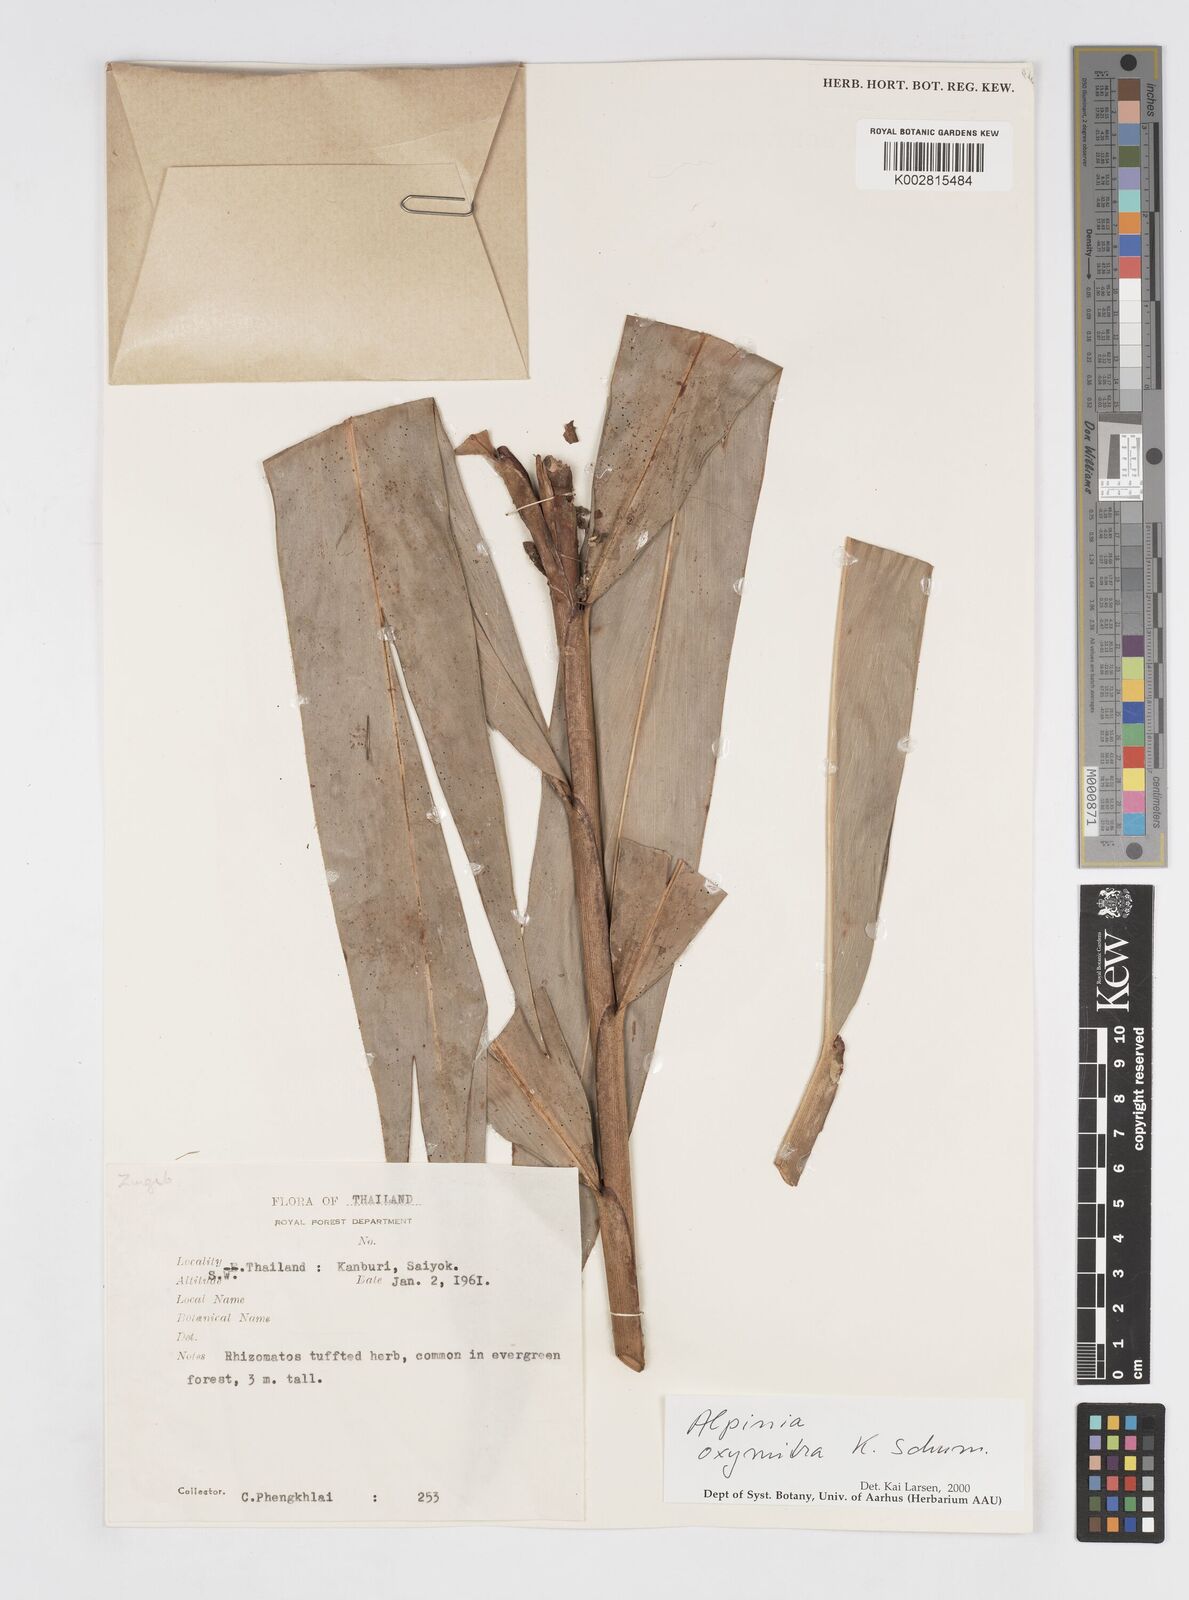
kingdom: Plantae
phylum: Tracheophyta
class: Liliopsida
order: Zingiberales
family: Zingiberaceae
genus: Alpinia
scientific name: Alpinia oxymitra
